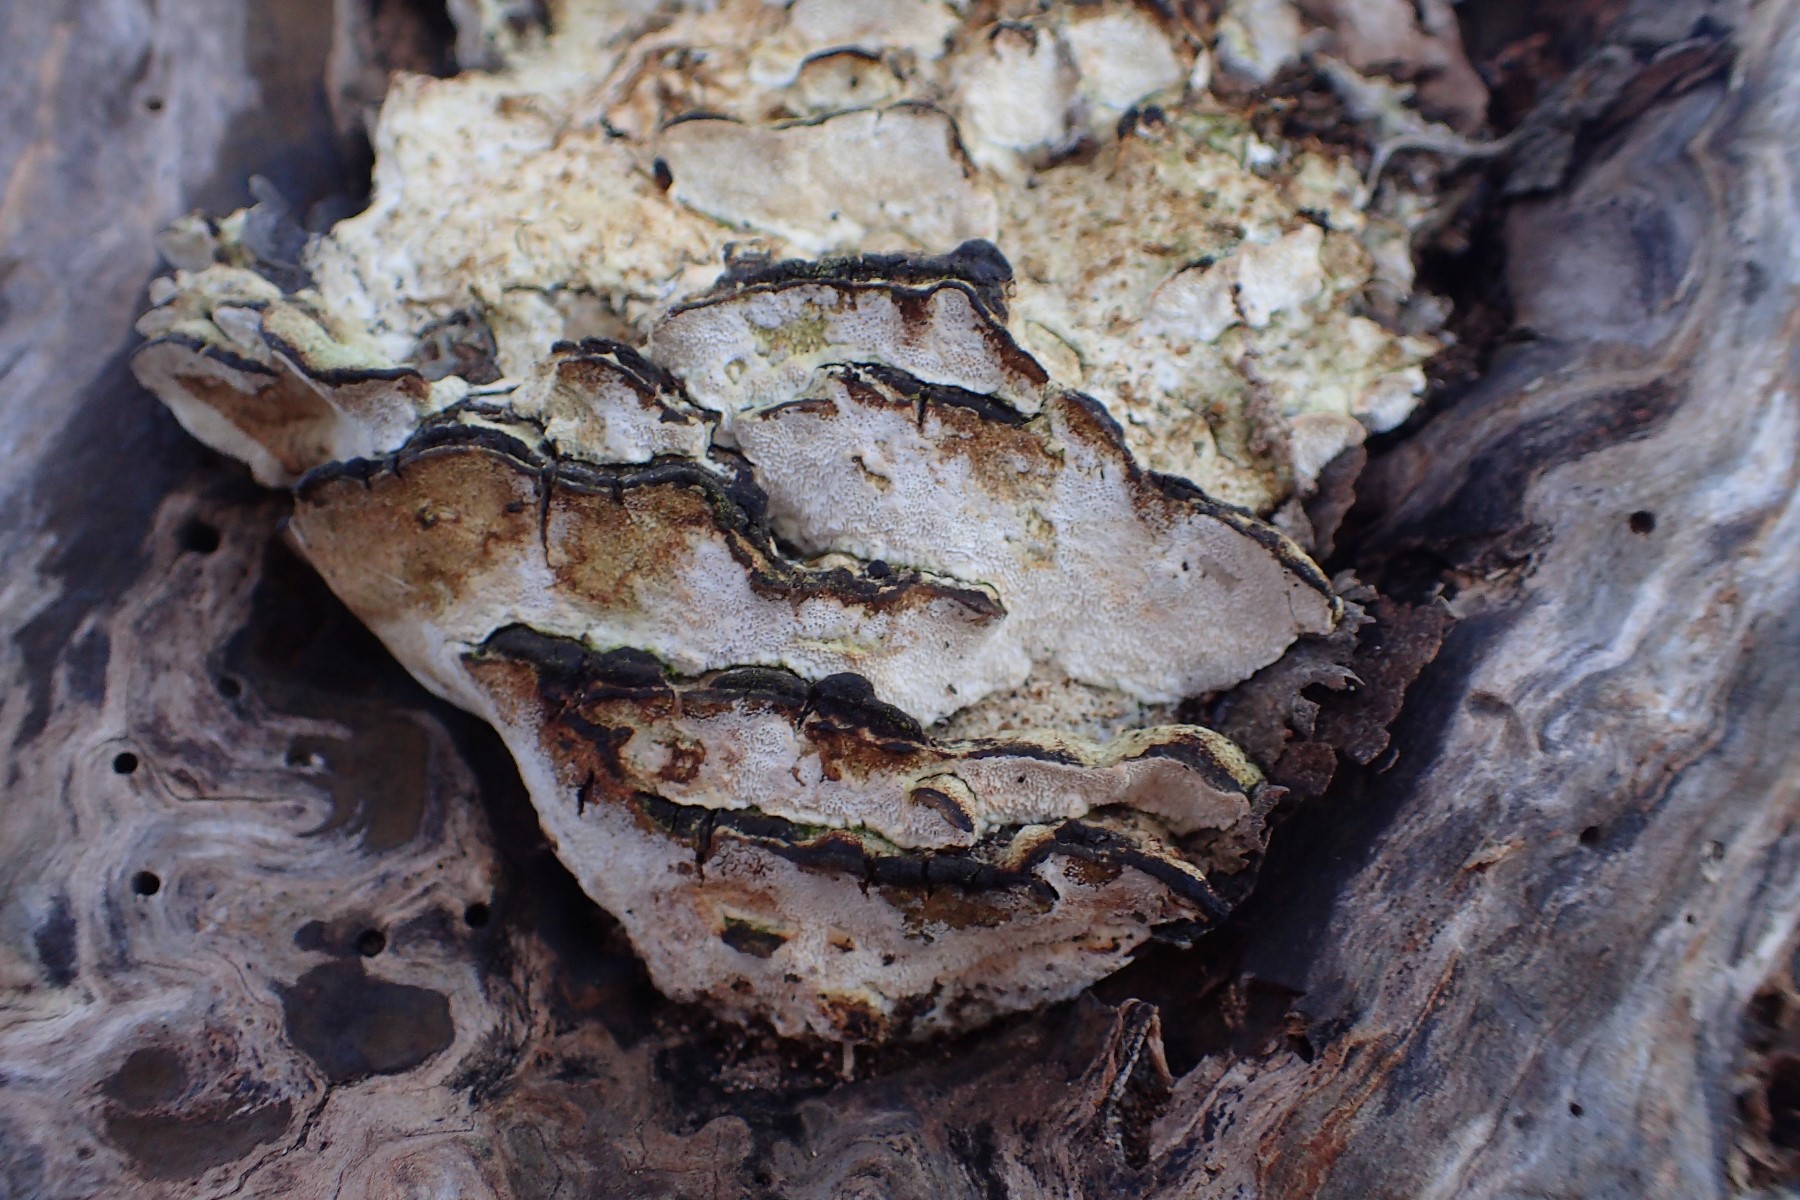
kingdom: Fungi
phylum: Basidiomycota
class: Agaricomycetes
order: Hymenochaetales
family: Oxyporaceae
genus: Oxyporus
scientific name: Oxyporus populinus
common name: sammenvokset trylleporesvamp
